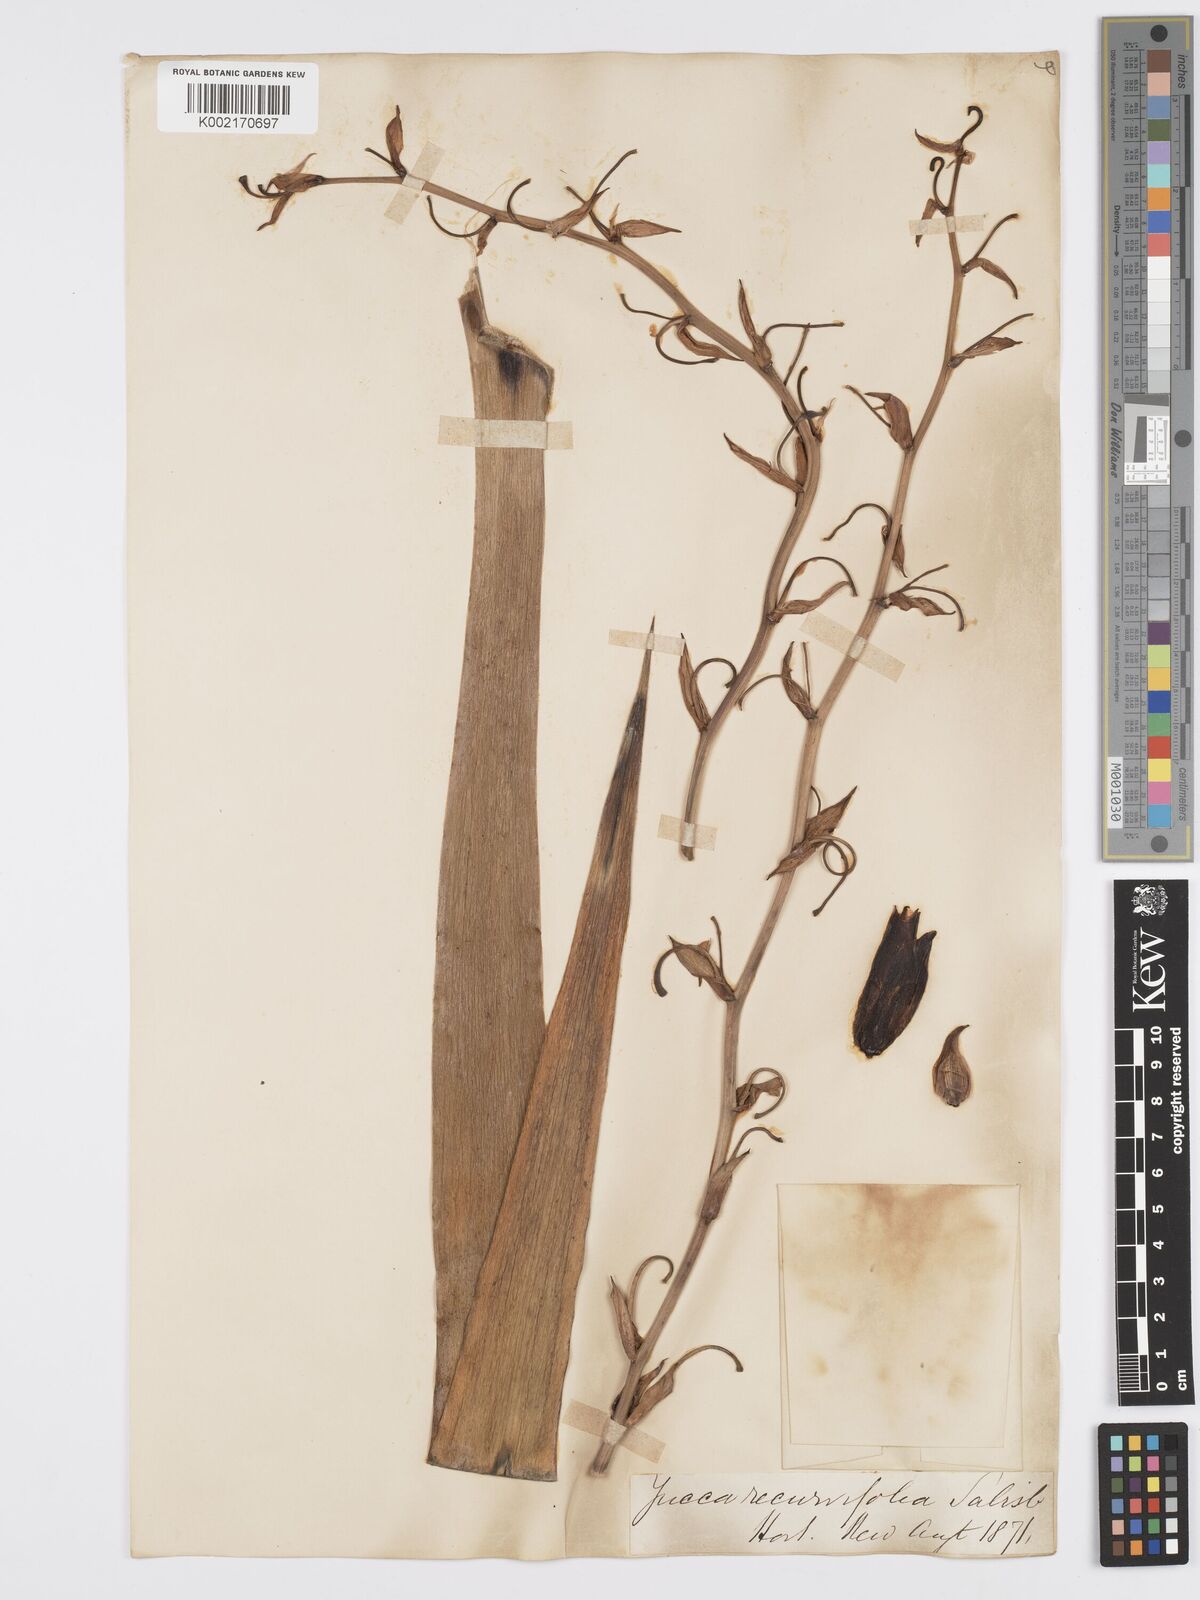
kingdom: Plantae
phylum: Tracheophyta
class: Liliopsida
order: Asparagales
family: Asparagaceae
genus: Yucca
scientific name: Yucca gloriosa
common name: Spanish-dagger
